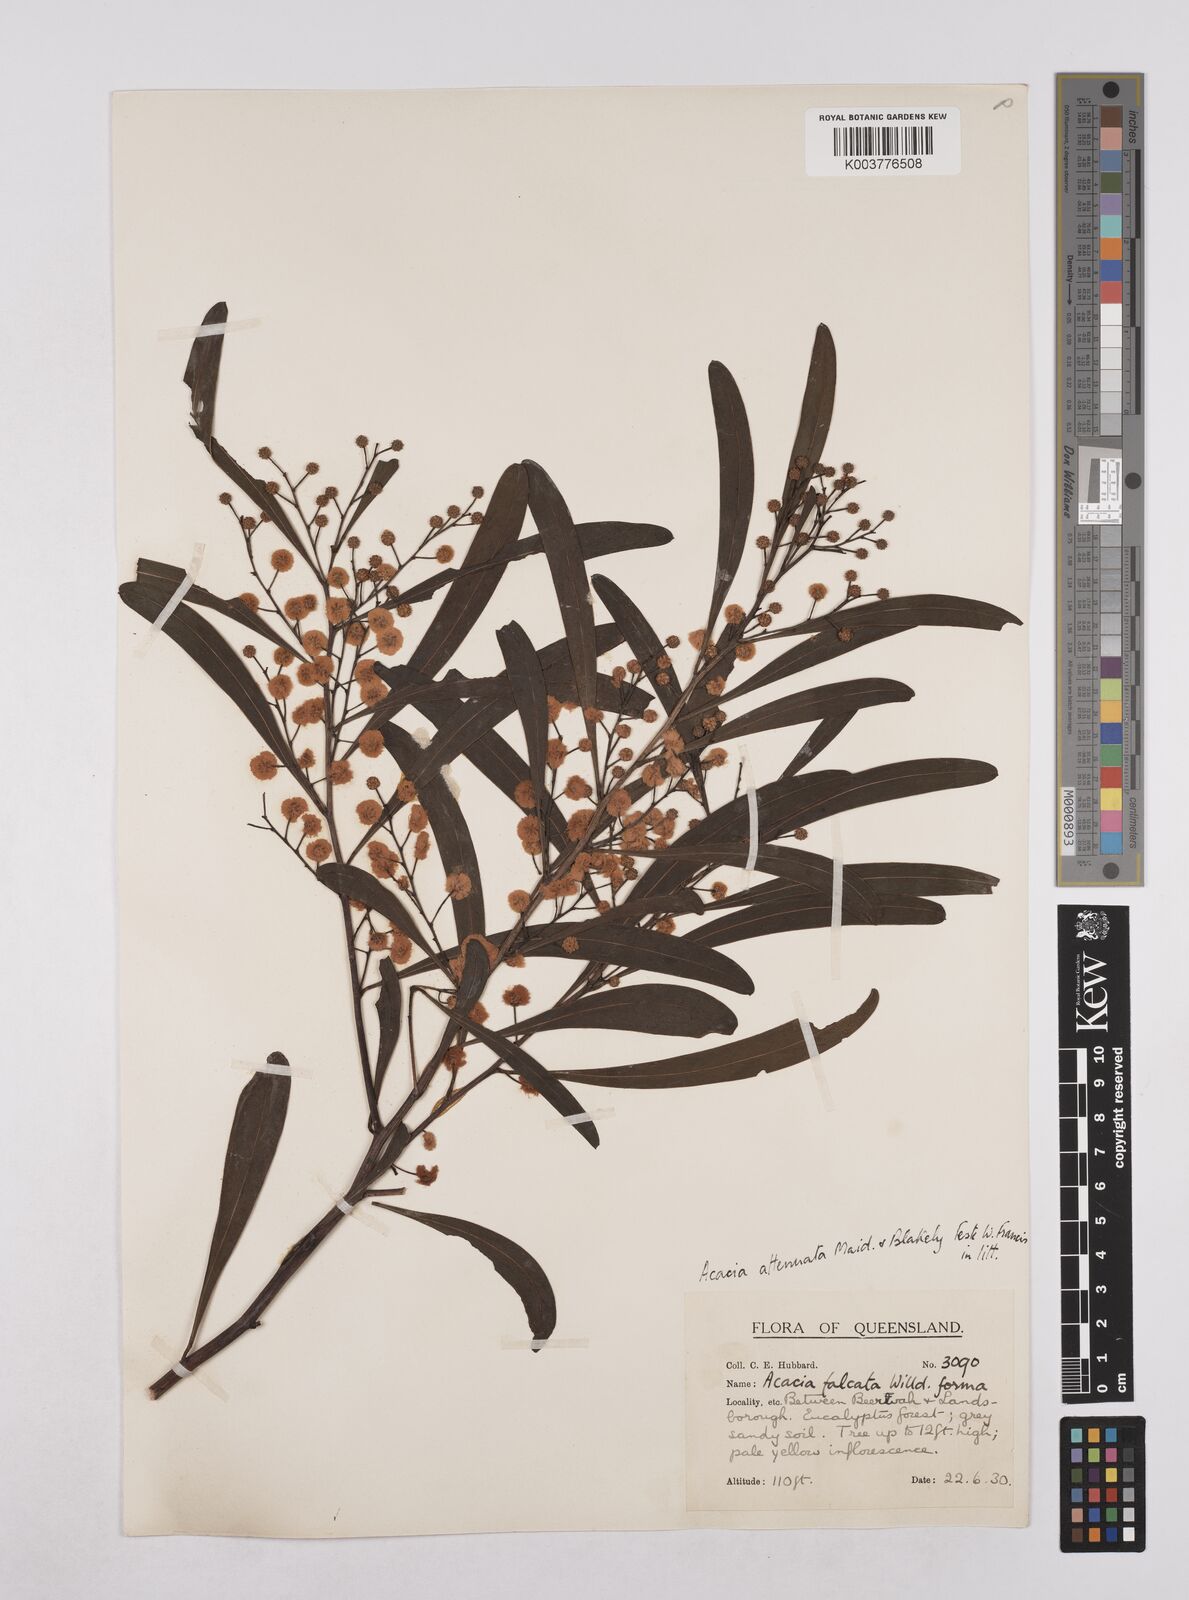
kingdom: Plantae
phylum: Tracheophyta
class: Magnoliopsida
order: Fabales
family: Fabaceae
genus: Acacia
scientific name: Acacia attenuata
